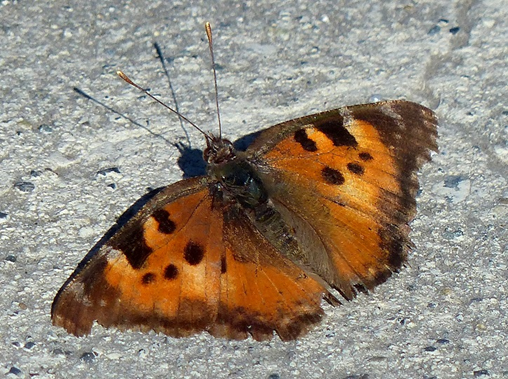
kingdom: Animalia
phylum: Arthropoda
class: Insecta
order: Lepidoptera
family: Nymphalidae
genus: Nymphalis
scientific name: Nymphalis californica
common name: California Tortoiseshell
